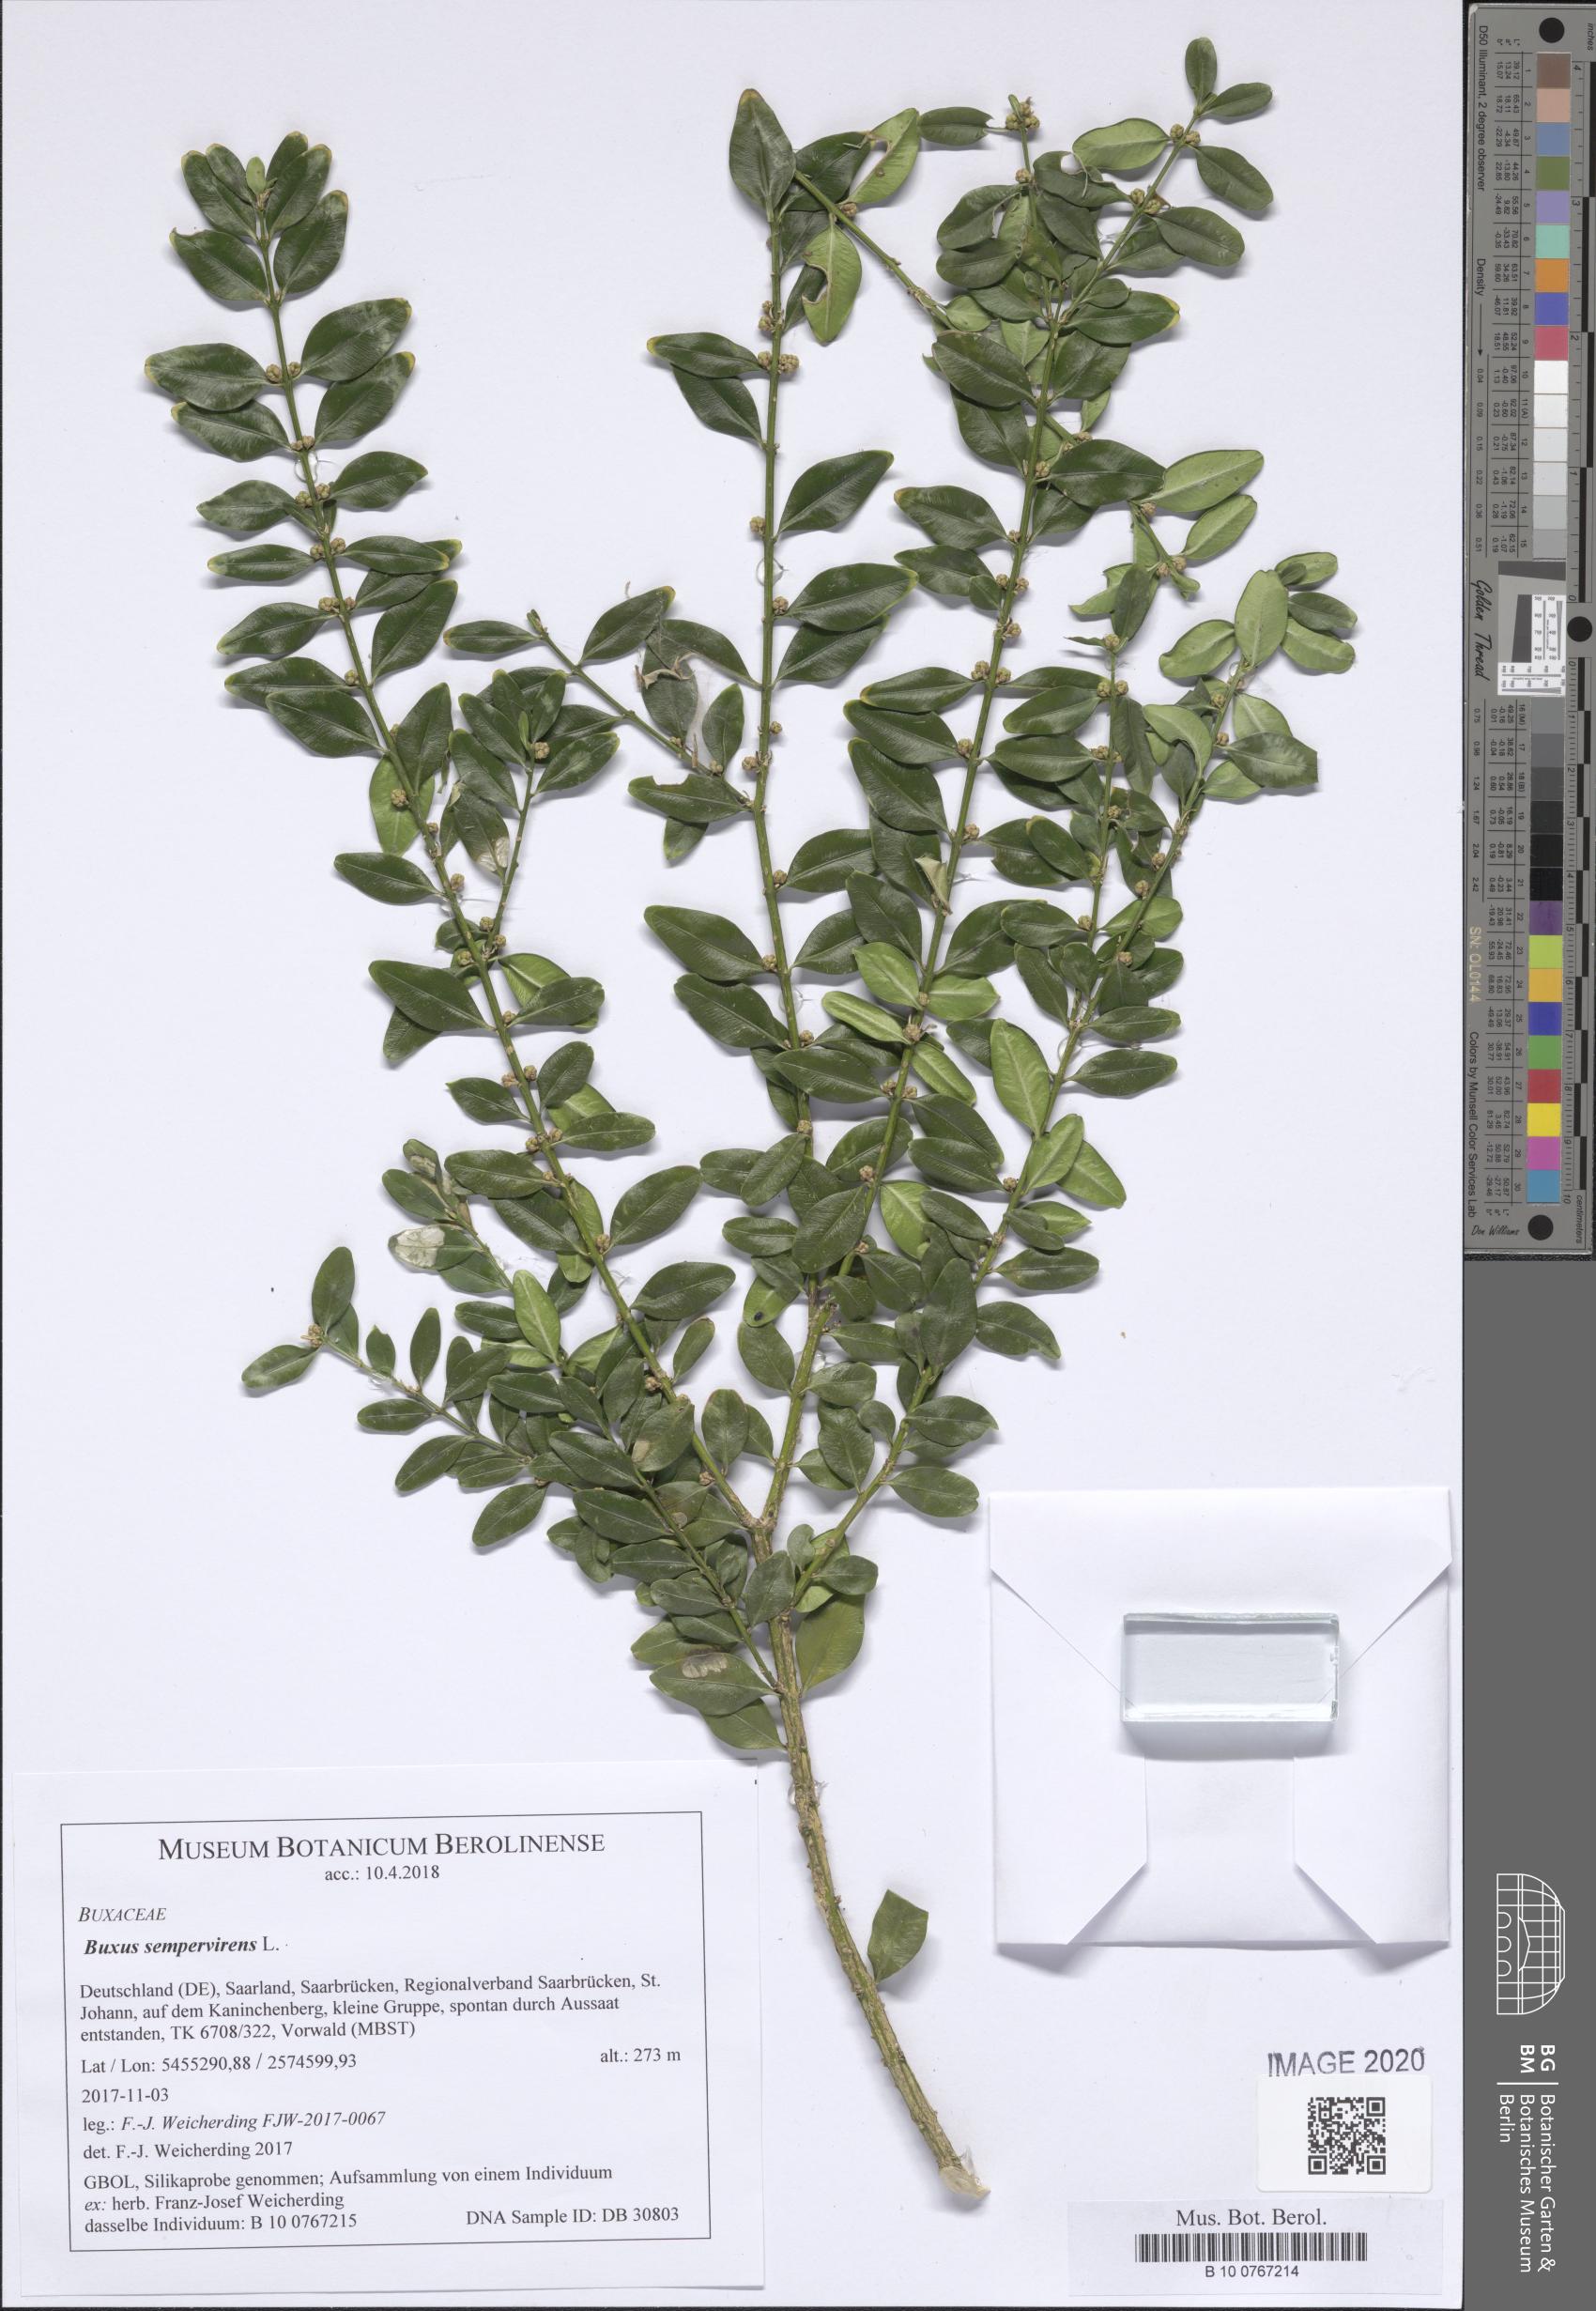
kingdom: Plantae
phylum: Tracheophyta
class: Magnoliopsida
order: Buxales
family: Buxaceae
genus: Buxus
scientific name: Buxus sempervirens
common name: Box
